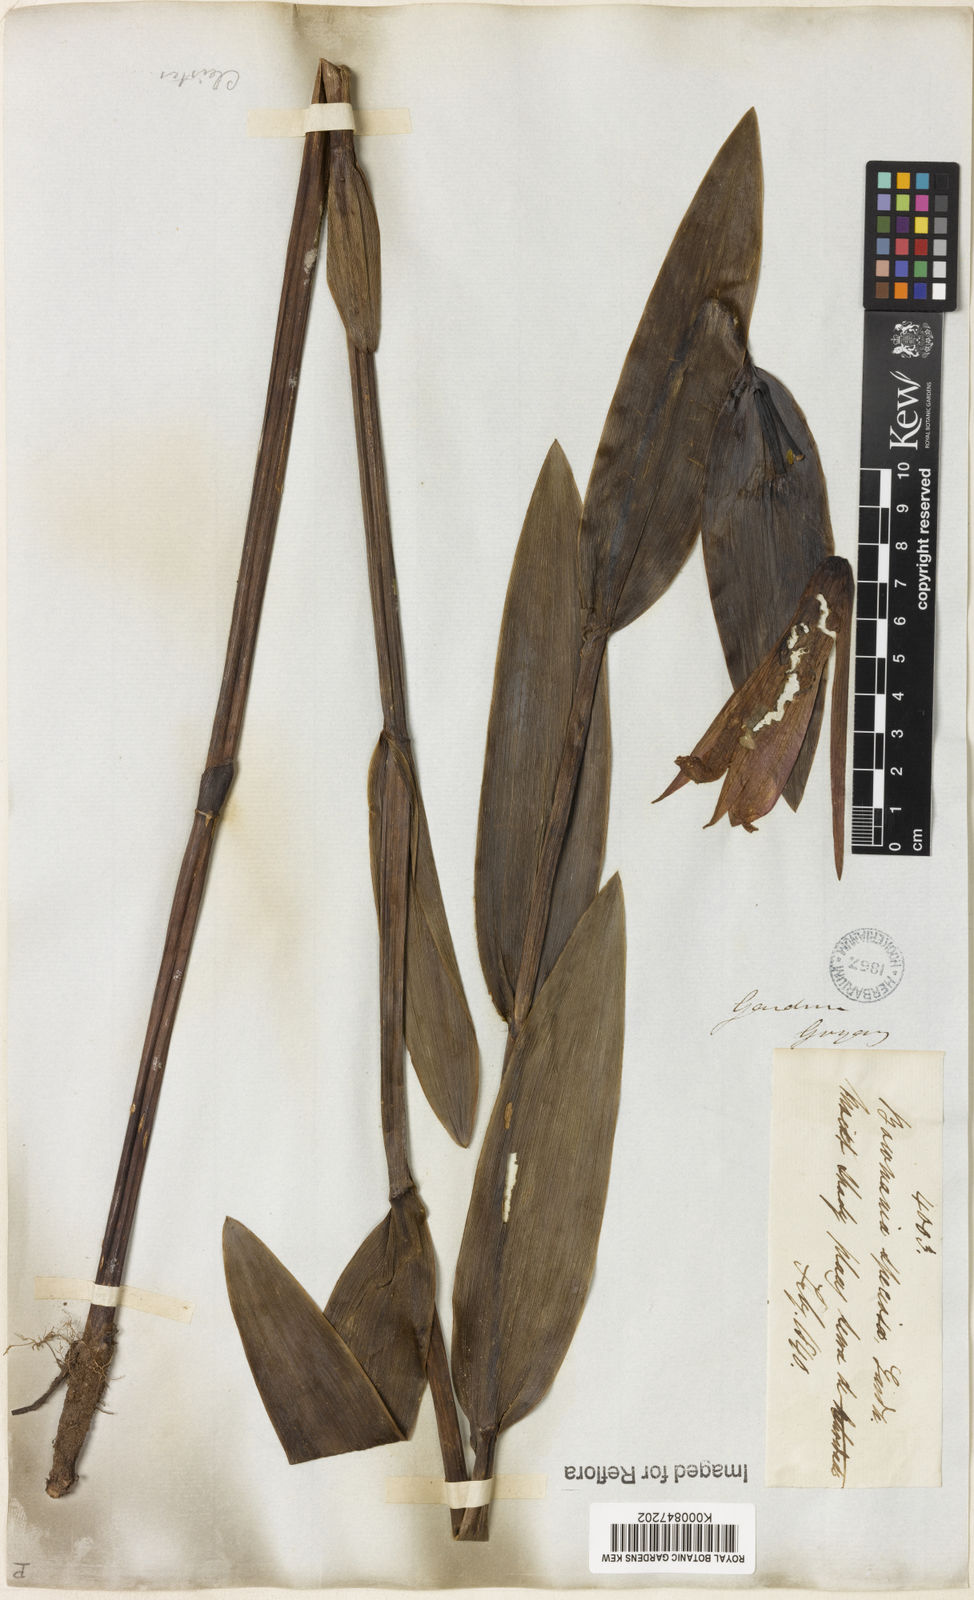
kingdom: Plantae
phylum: Tracheophyta
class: Liliopsida
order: Asparagales
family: Orchidaceae
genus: Cleistes
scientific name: Cleistes speciosa
